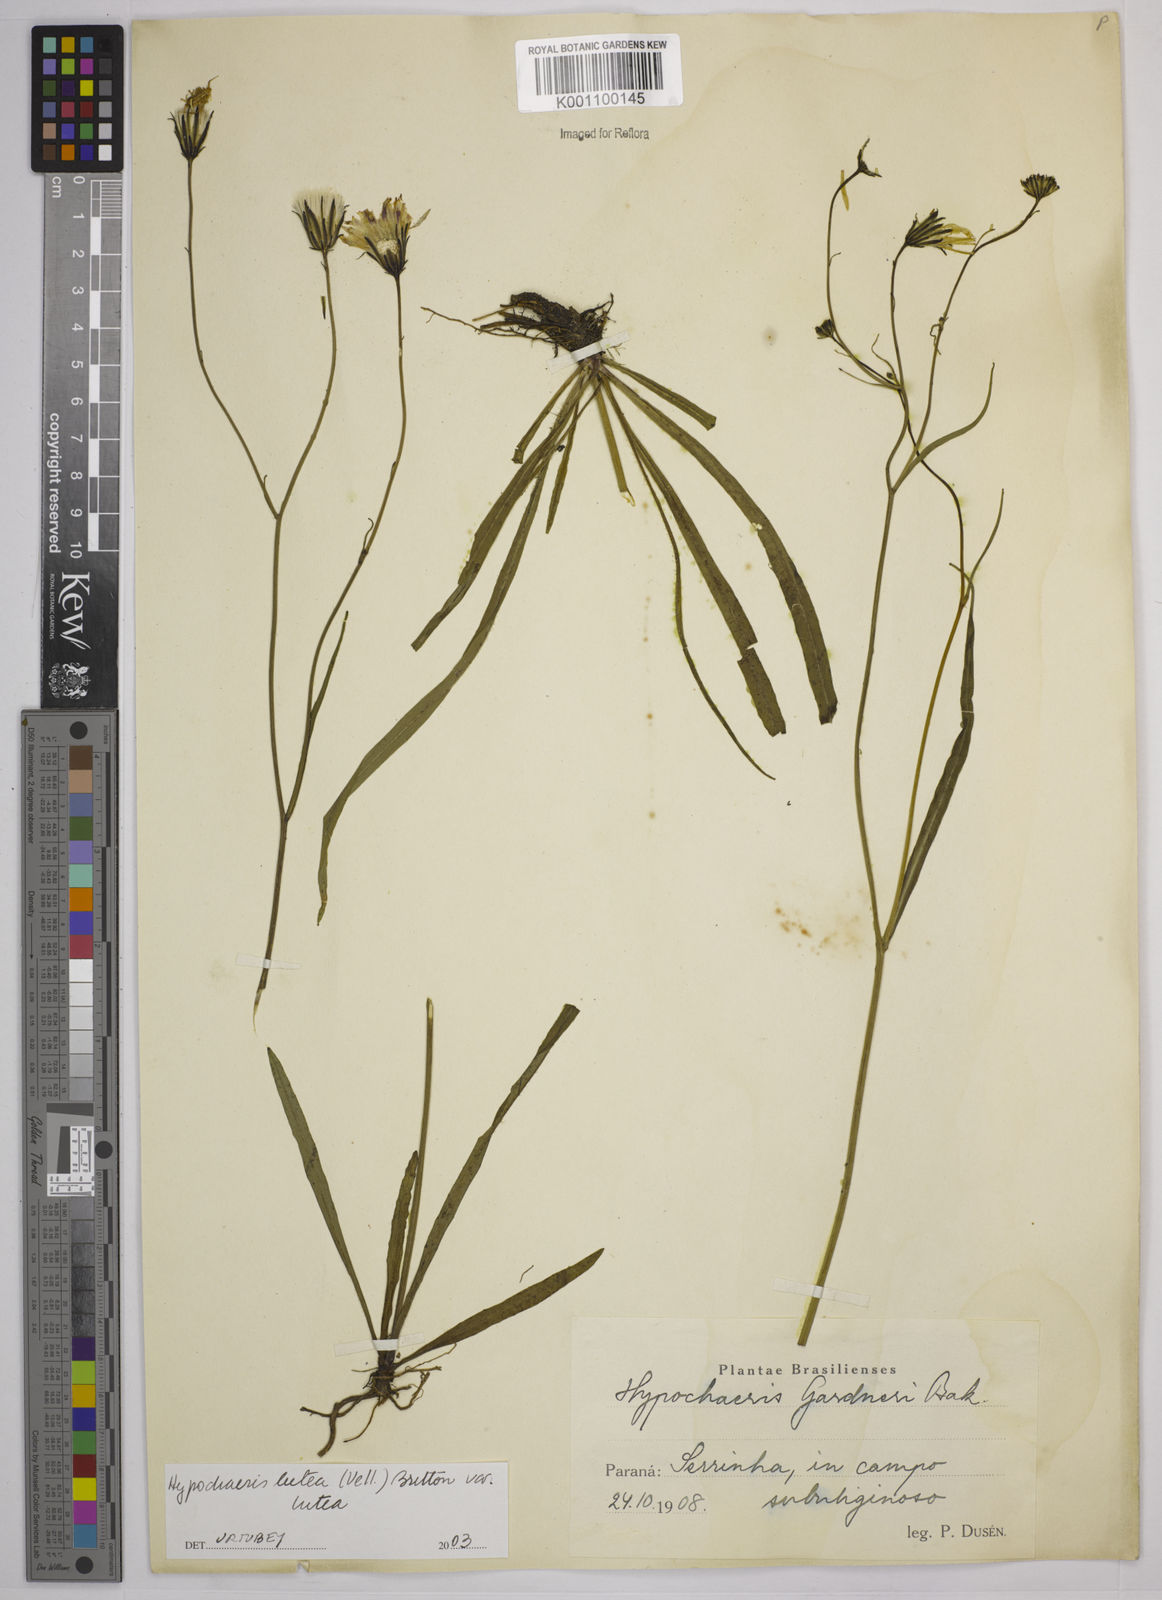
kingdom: Plantae
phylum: Tracheophyta
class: Magnoliopsida
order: Asterales
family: Asteraceae
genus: Hypochaeris
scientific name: Hypochaeris
